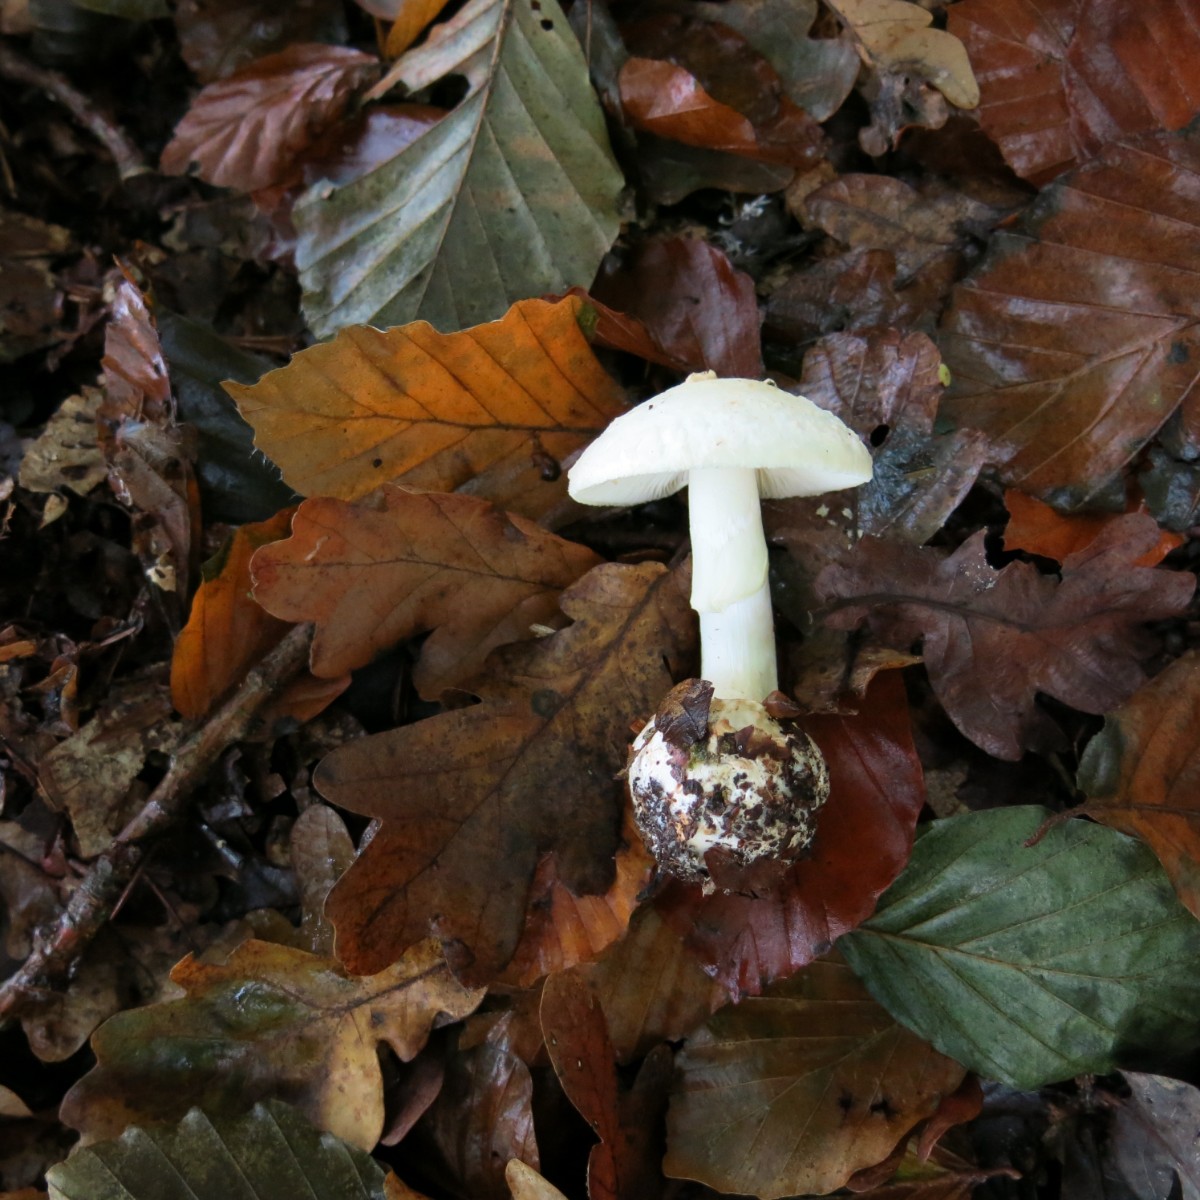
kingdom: Fungi
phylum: Basidiomycota
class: Agaricomycetes
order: Agaricales
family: Amanitaceae
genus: Amanita
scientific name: Amanita citrina
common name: kugleknoldet fluesvamp
